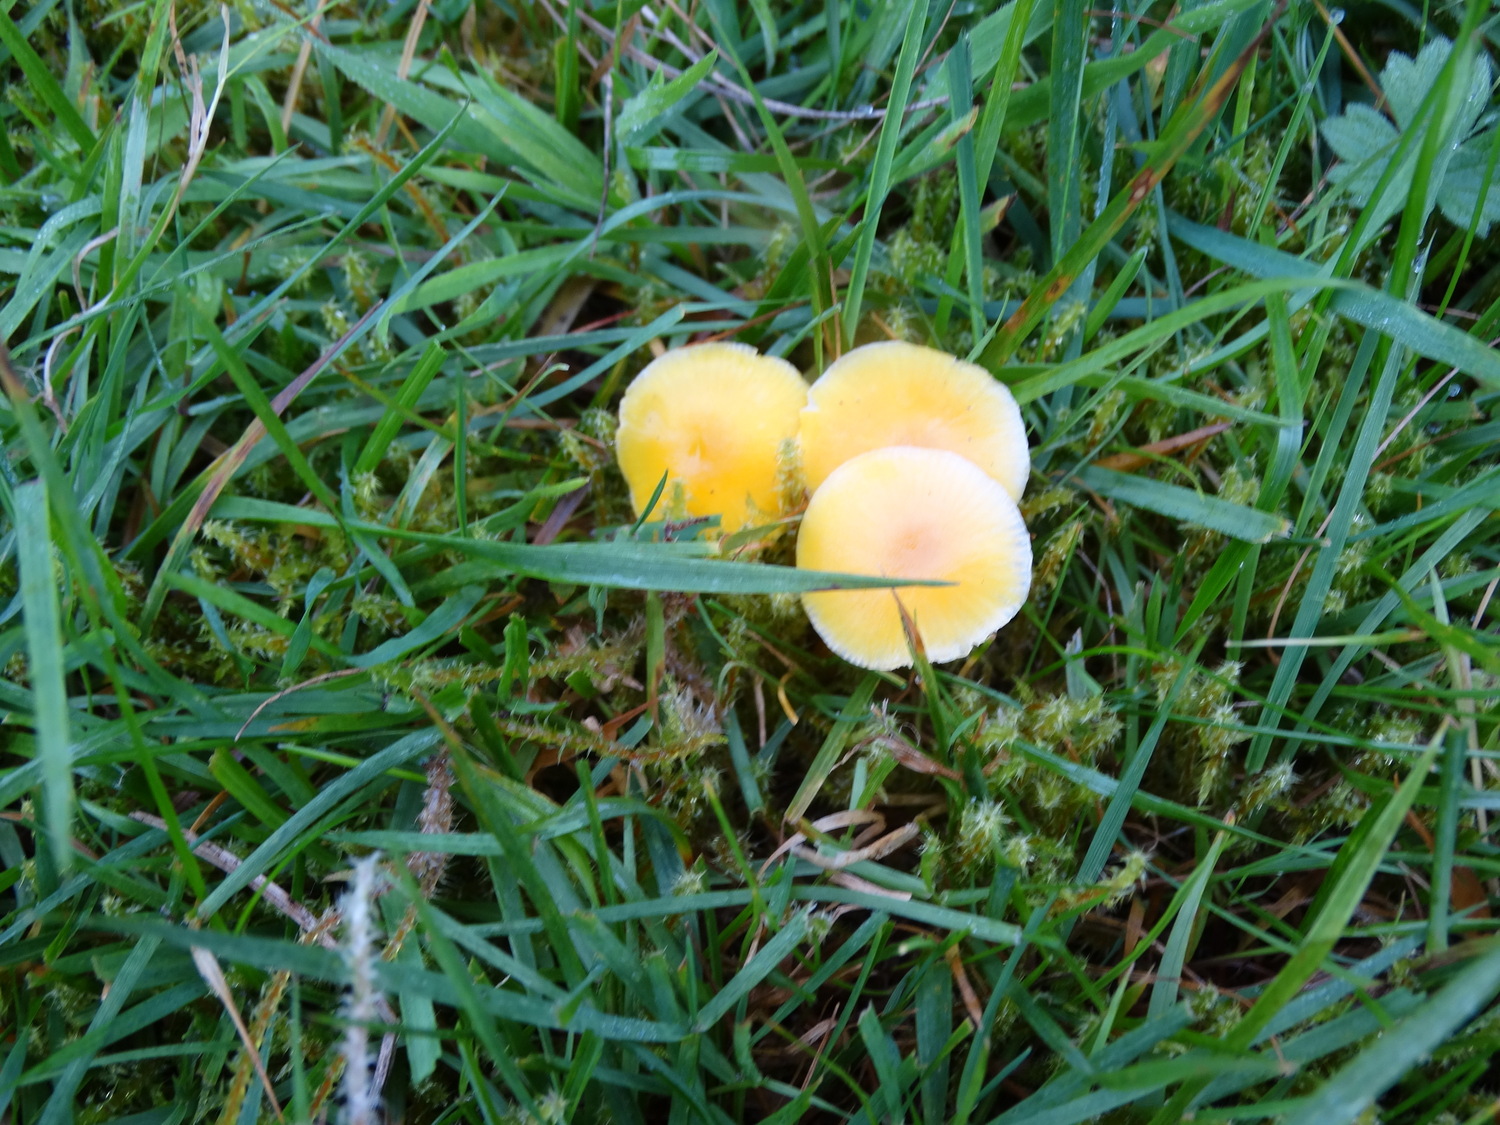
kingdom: Fungi
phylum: Basidiomycota
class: Agaricomycetes
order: Agaricales
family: Hygrophoraceae
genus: Hygrocybe
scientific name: Hygrocybe ceracea
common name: voksgul vokshat
